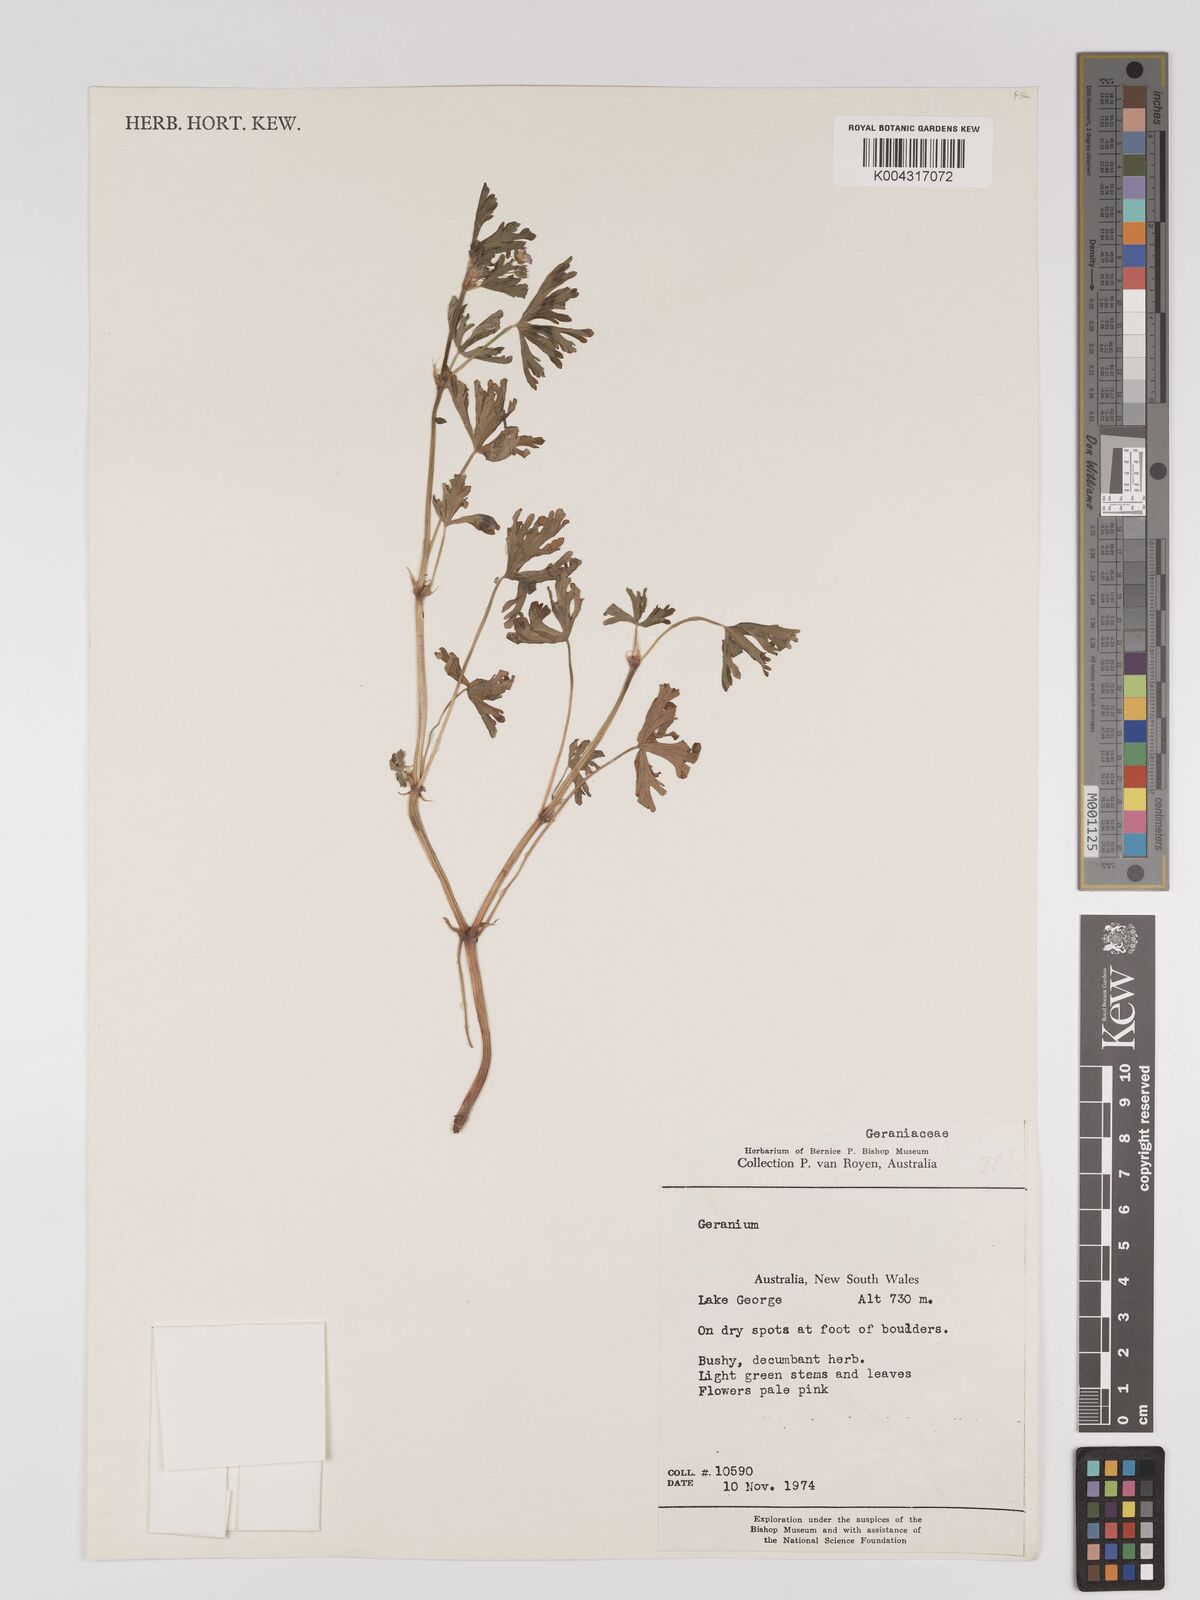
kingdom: Plantae
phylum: Tracheophyta
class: Magnoliopsida
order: Geraniales
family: Geraniaceae
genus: Geranium
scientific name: Geranium
